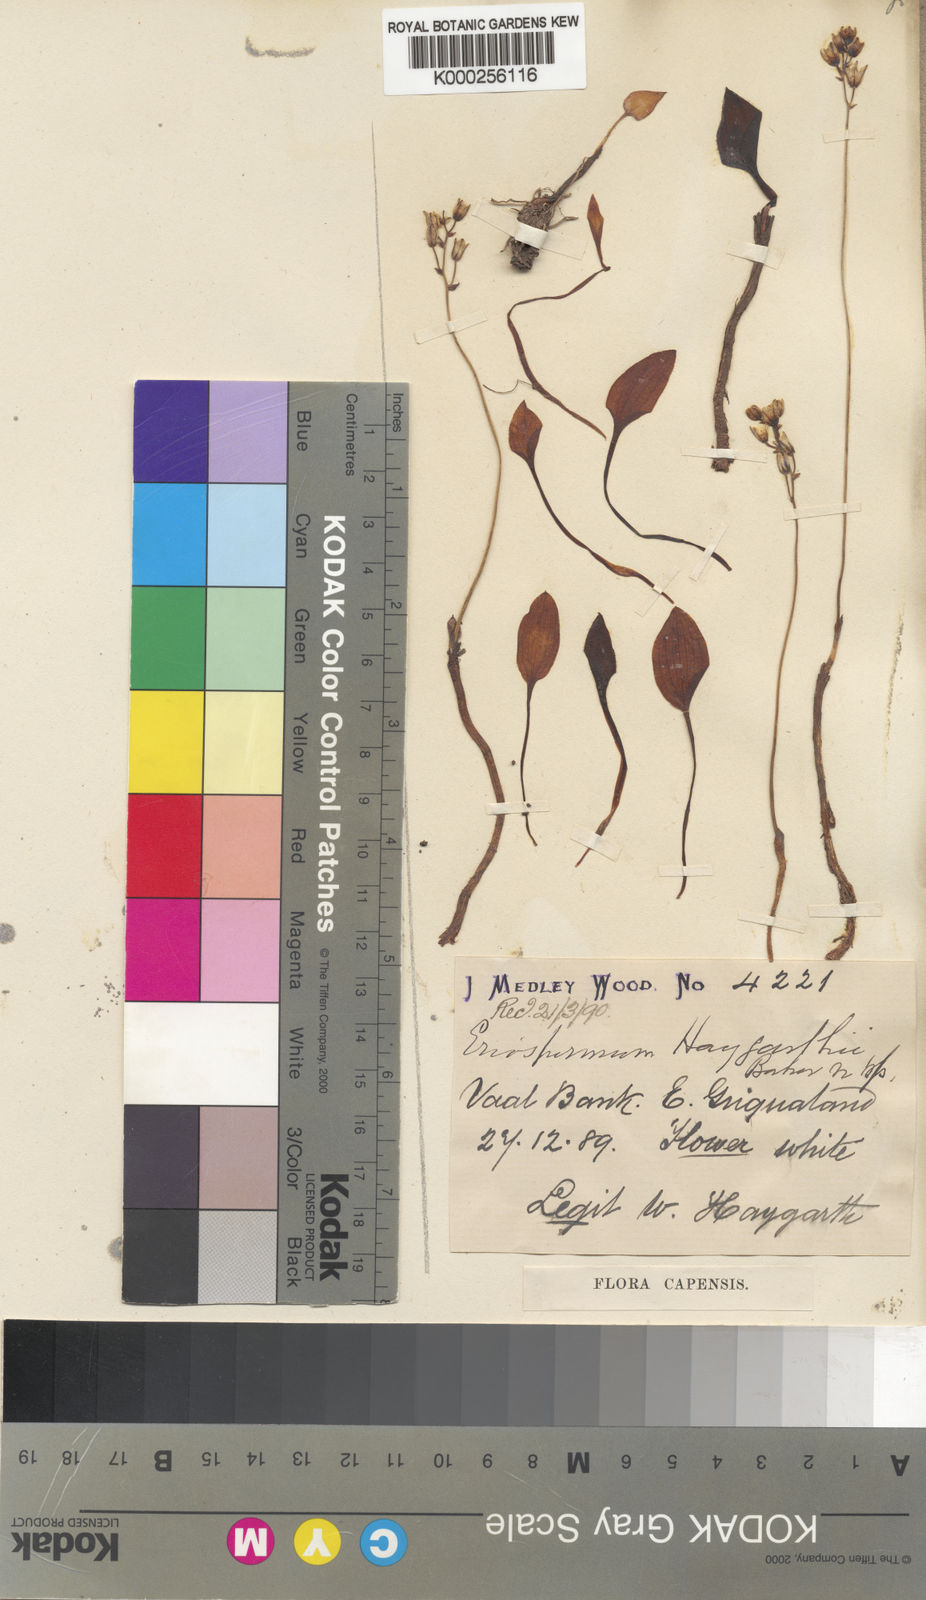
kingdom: Plantae
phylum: Tracheophyta
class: Liliopsida
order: Asparagales
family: Asparagaceae
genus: Eriospermum
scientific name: Eriospermum ornithogaloides
